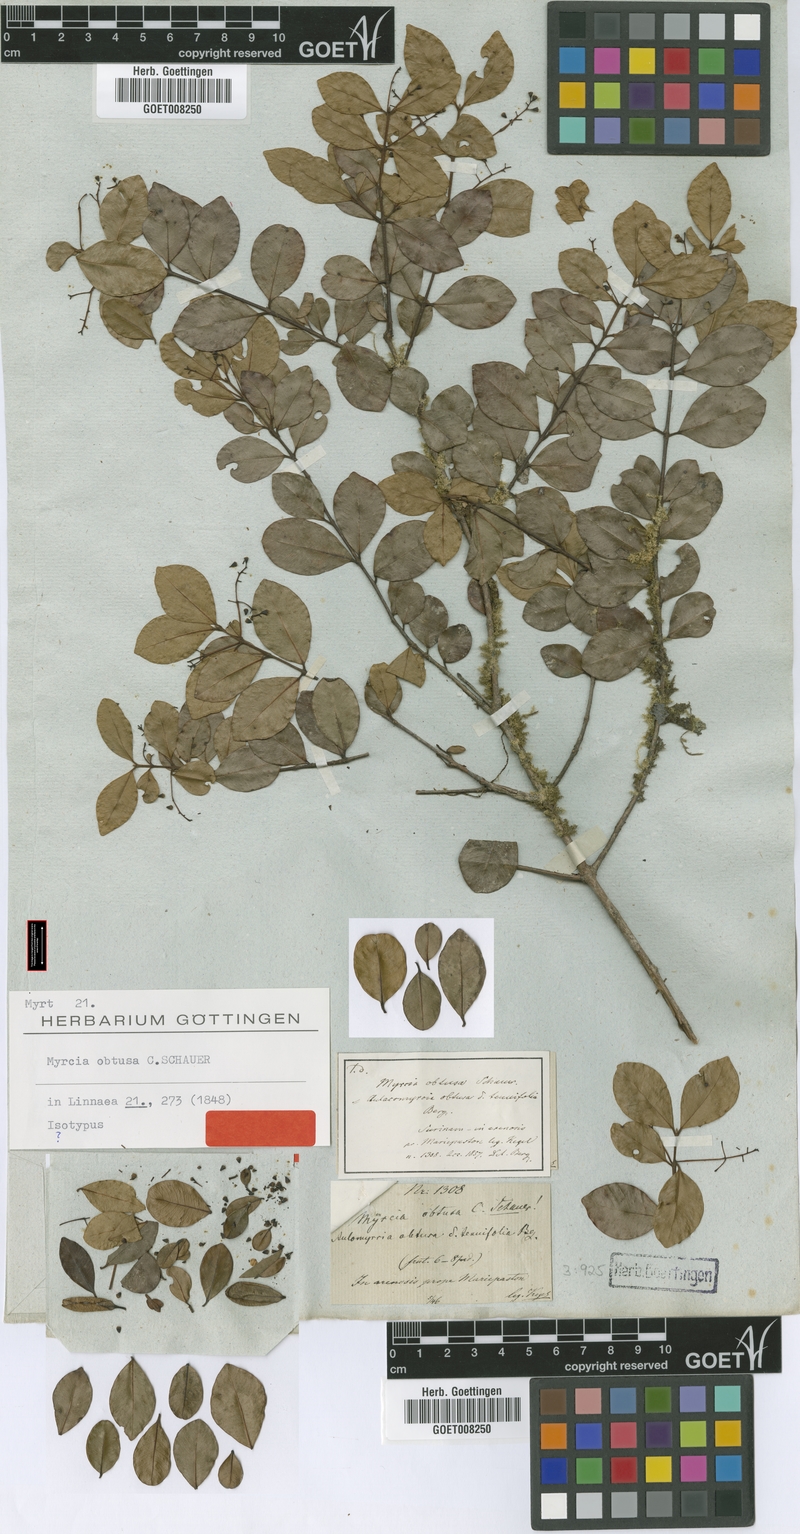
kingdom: Plantae
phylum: Tracheophyta
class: Magnoliopsida
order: Myrtales
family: Myrtaceae
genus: Myrcia
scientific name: Myrcia guianensis
